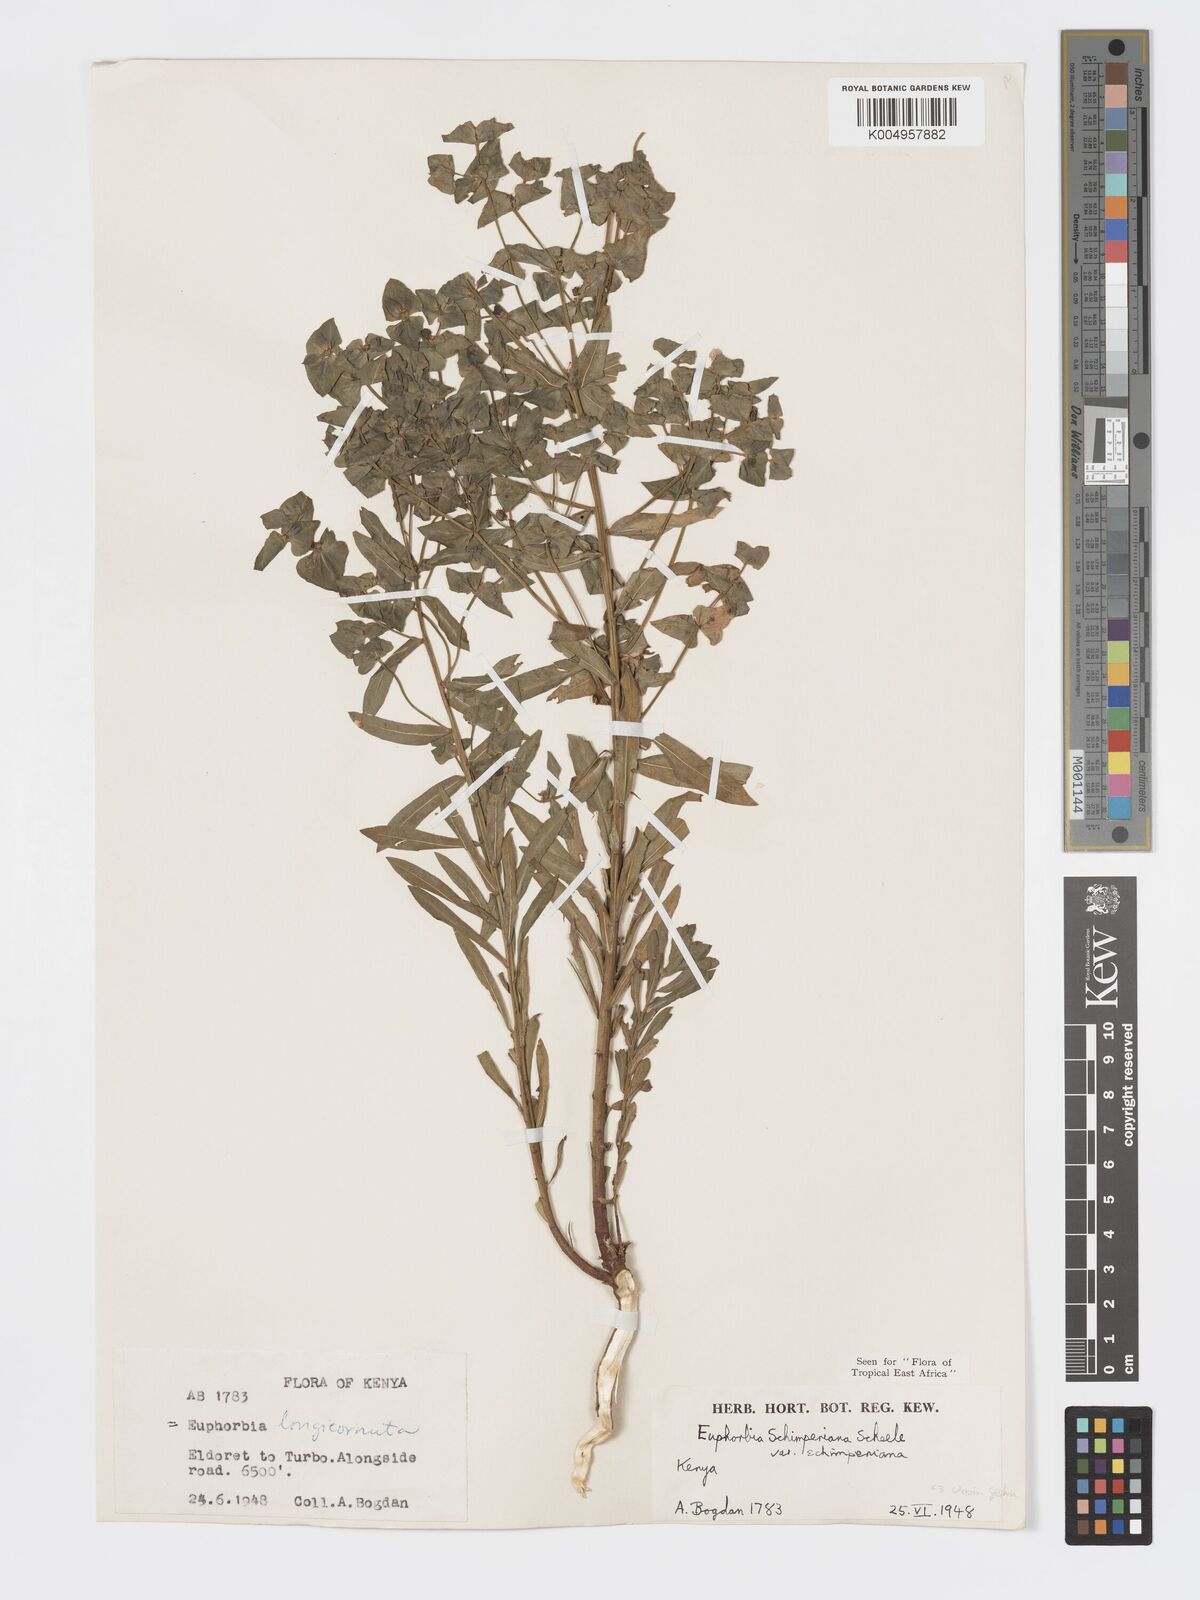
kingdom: Plantae
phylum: Tracheophyta
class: Magnoliopsida
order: Malpighiales
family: Euphorbiaceae
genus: Euphorbia
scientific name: Euphorbia schimperiana
